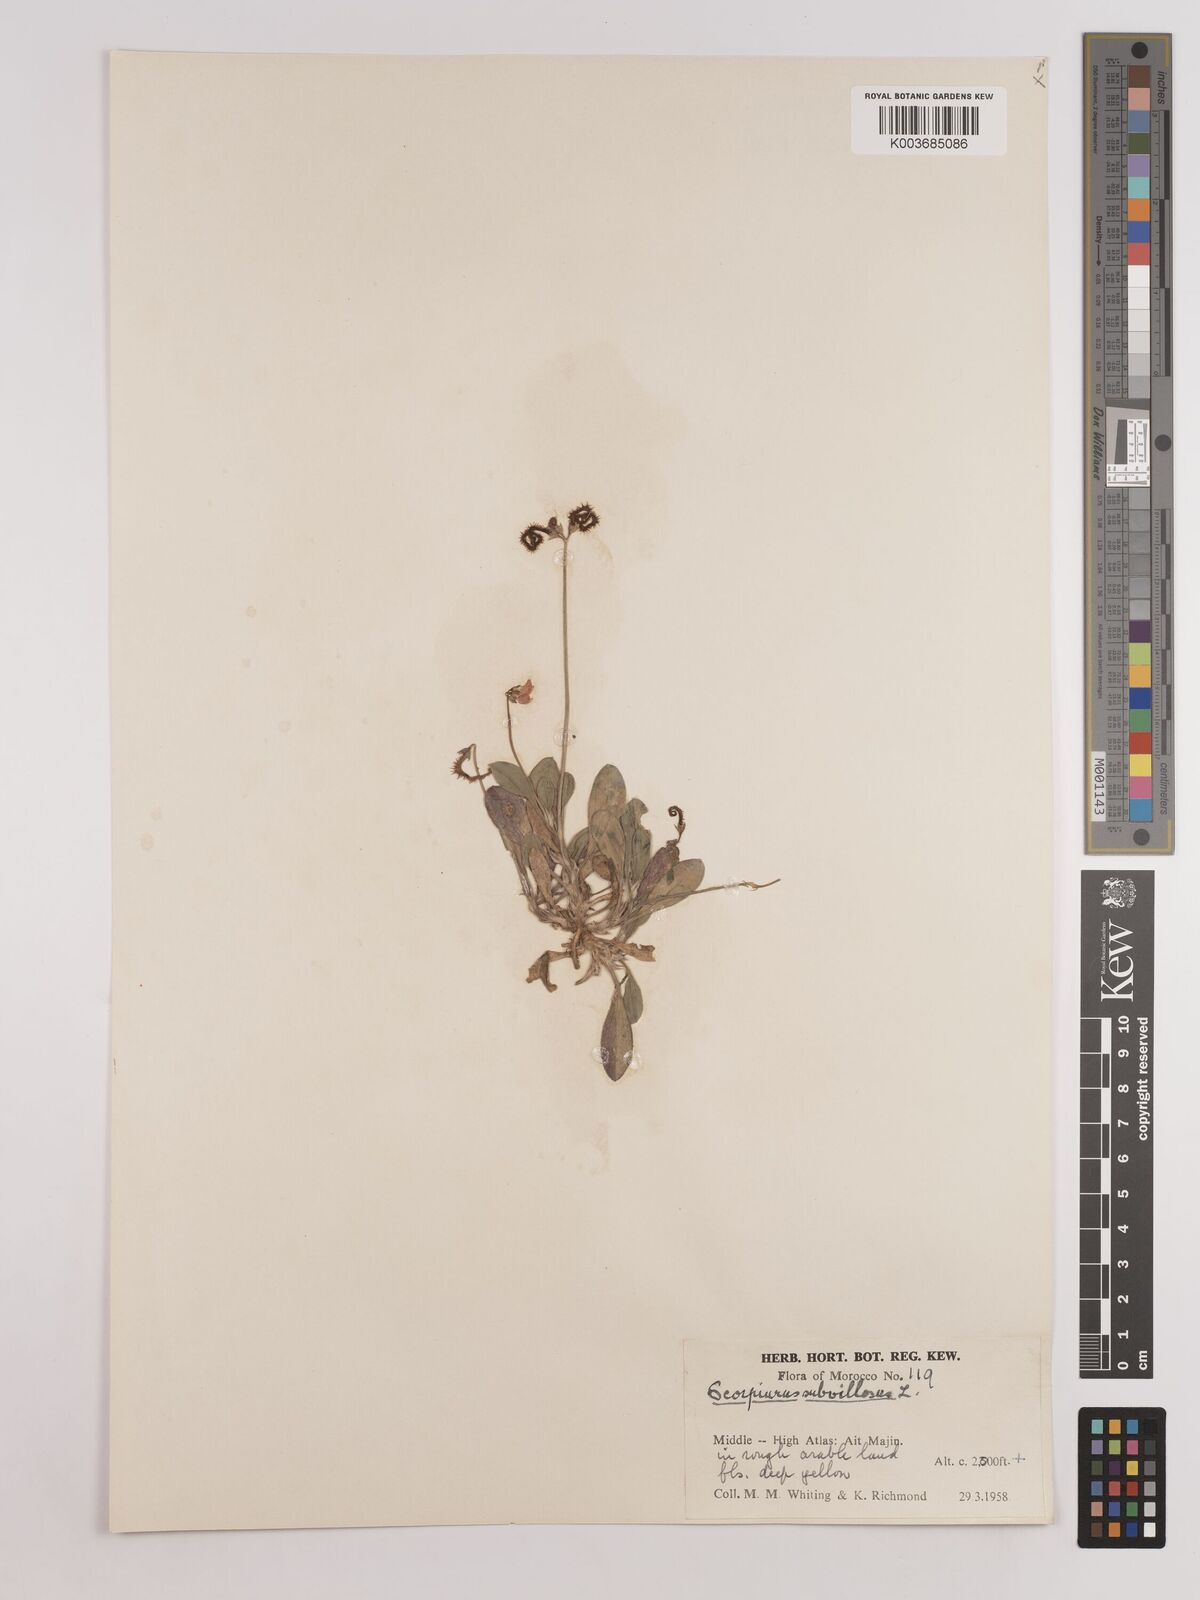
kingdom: Plantae
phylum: Tracheophyta
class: Magnoliopsida
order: Fabales
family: Fabaceae
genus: Scorpiurus
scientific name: Scorpiurus muricatus
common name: Caterpillar-plant
